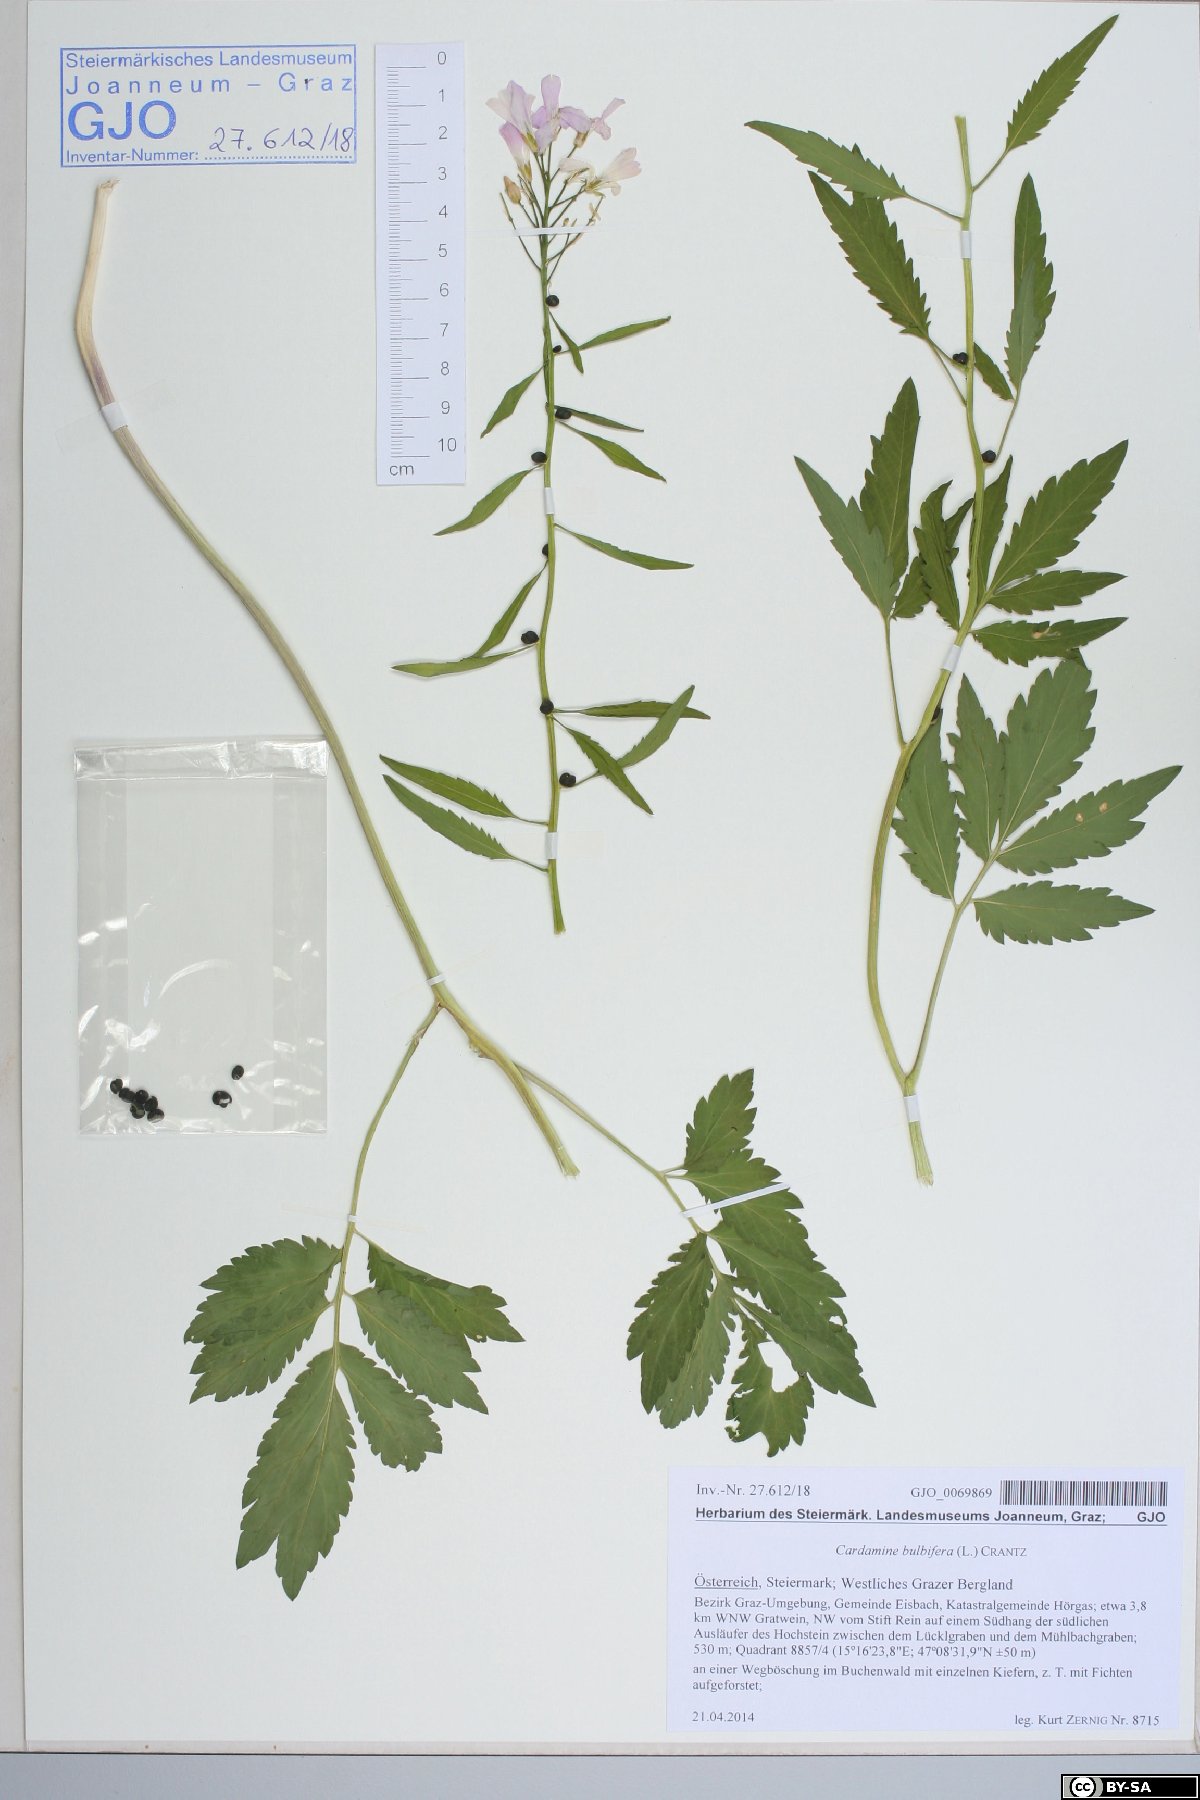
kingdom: Plantae
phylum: Tracheophyta
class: Magnoliopsida
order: Brassicales
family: Brassicaceae
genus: Cardamine
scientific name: Cardamine bulbifera
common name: Coralroot bittercress
